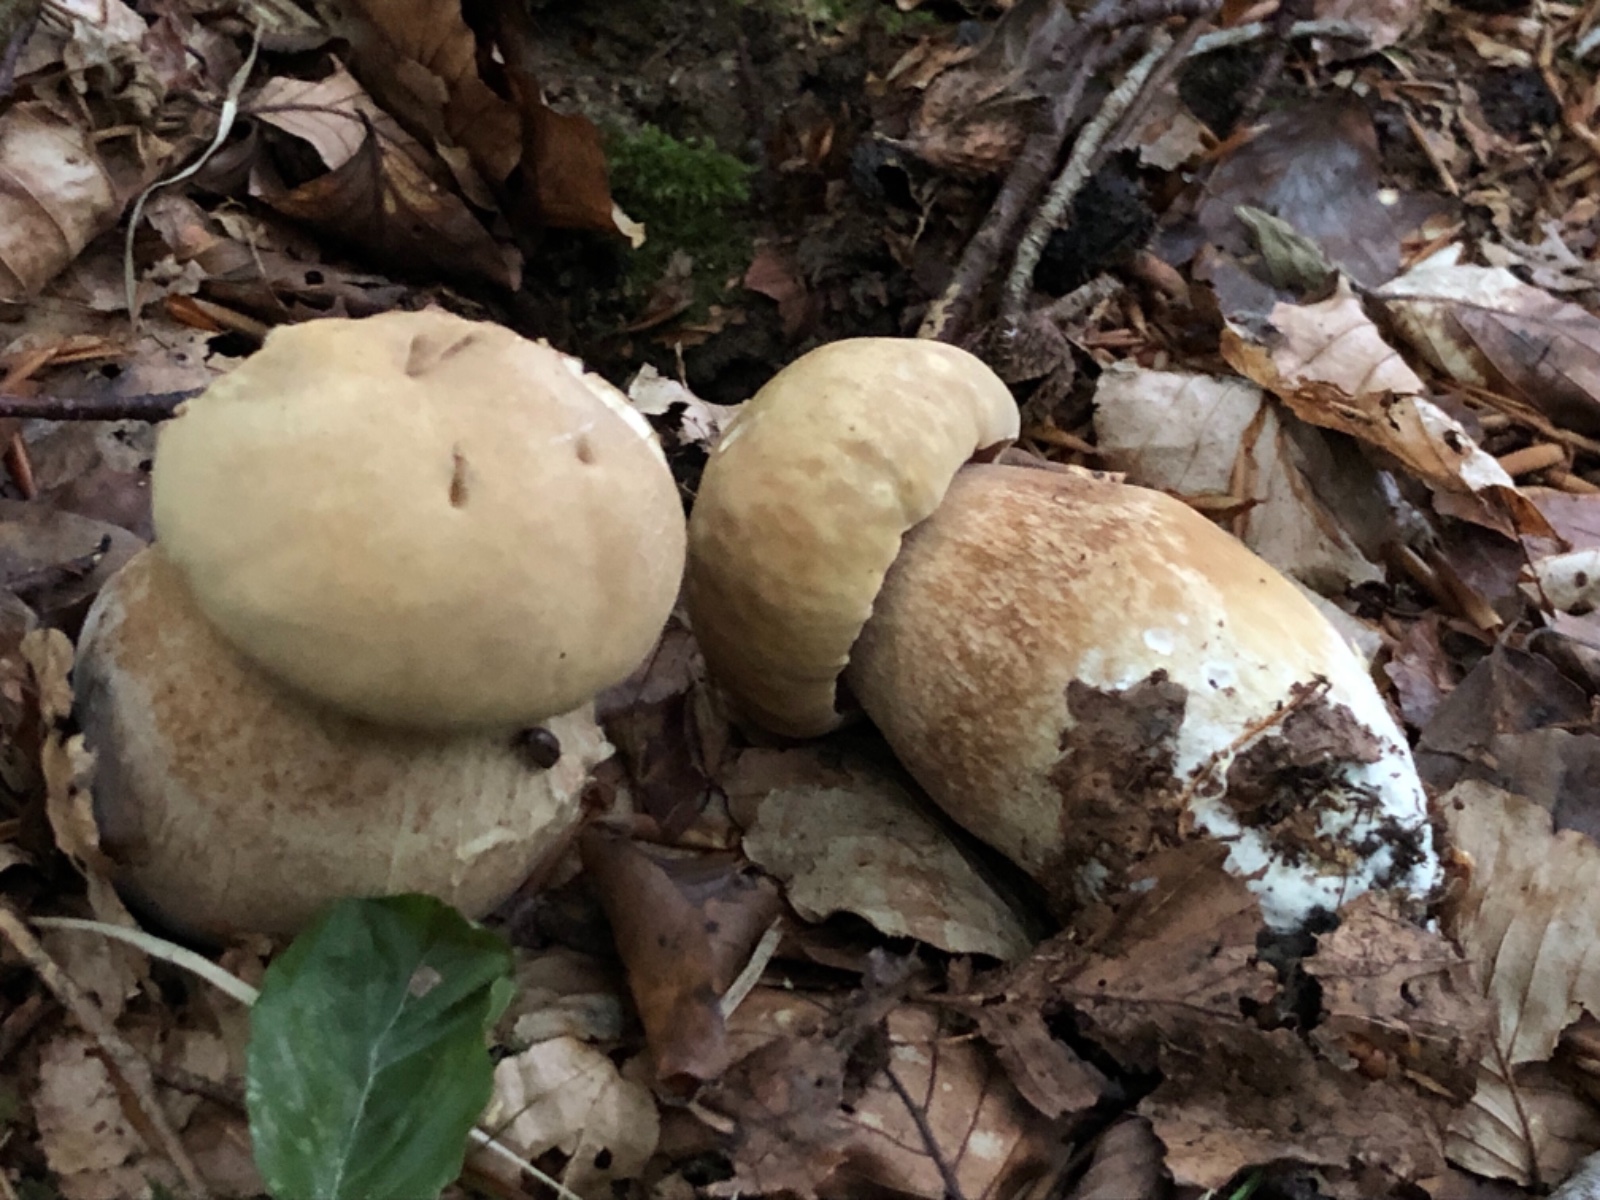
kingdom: Fungi
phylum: Basidiomycota
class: Agaricomycetes
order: Boletales
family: Boletaceae
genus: Boletus
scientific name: Boletus reticulatus
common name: sommer-rørhat
